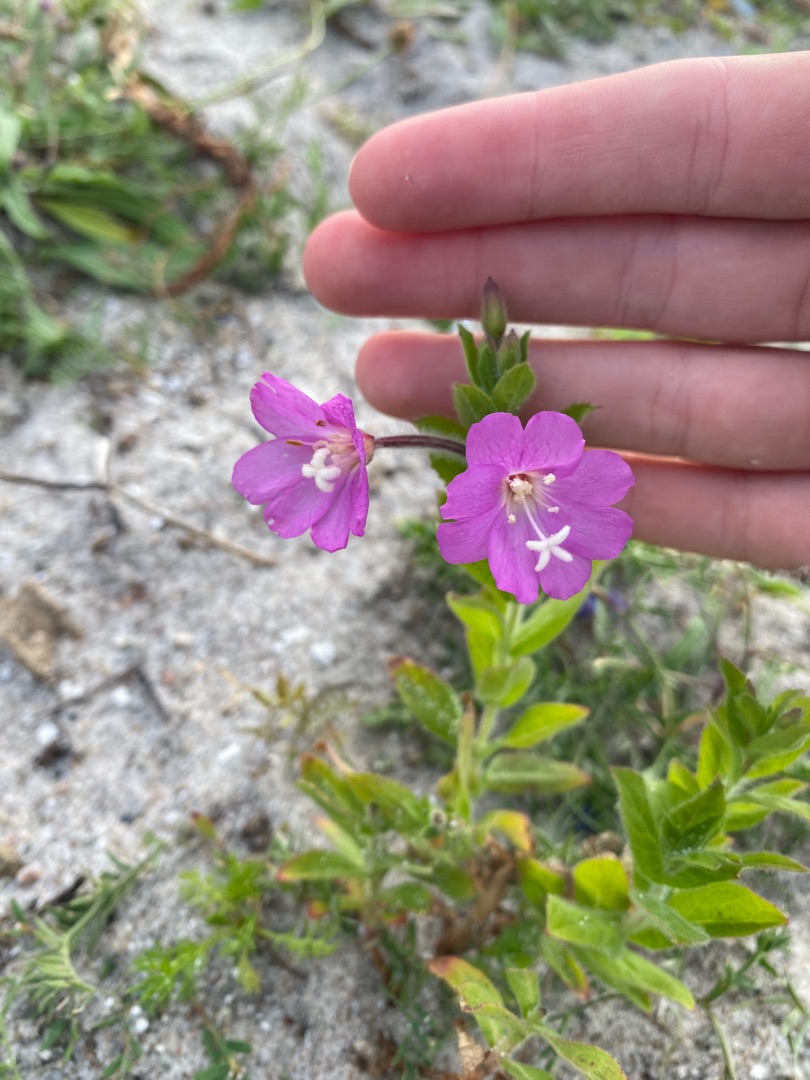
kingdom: Plantae
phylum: Tracheophyta
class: Magnoliopsida
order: Myrtales
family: Onagraceae
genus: Epilobium
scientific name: Epilobium hirsutum
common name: Lådden dueurt
